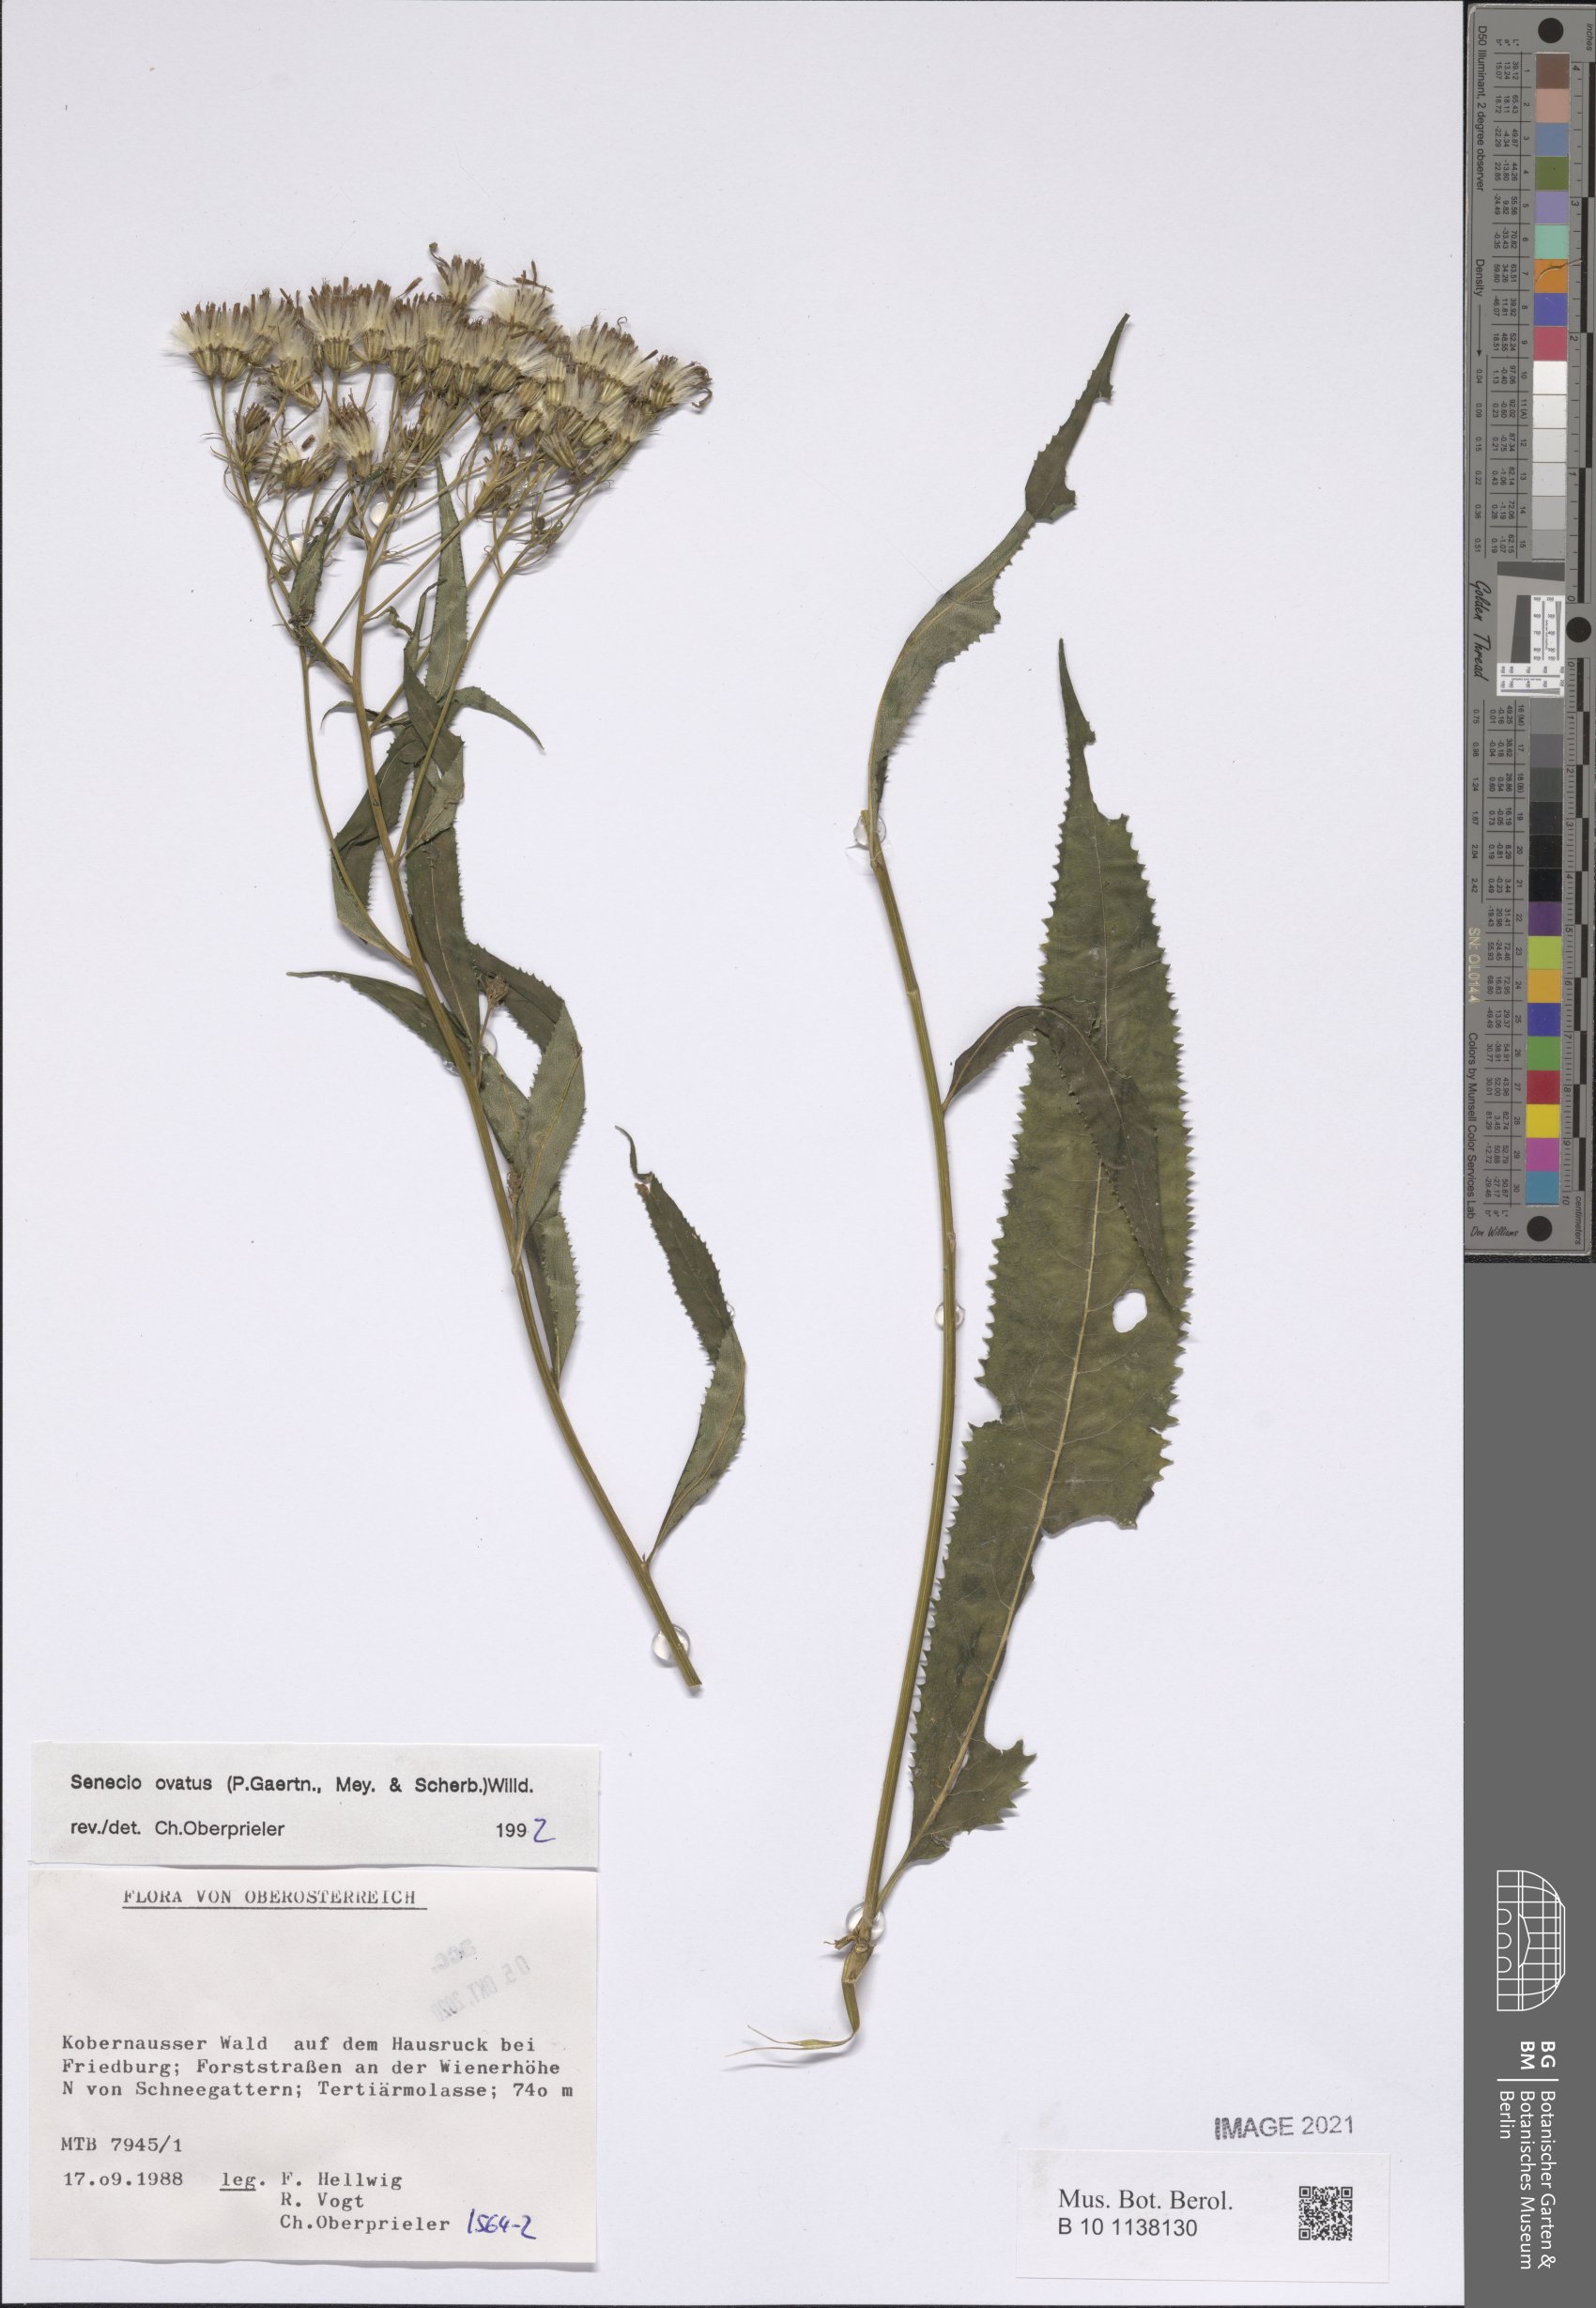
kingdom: Plantae
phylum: Tracheophyta
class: Magnoliopsida
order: Asterales
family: Asteraceae
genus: Senecio
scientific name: Senecio ovatus
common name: Wood ragwort
